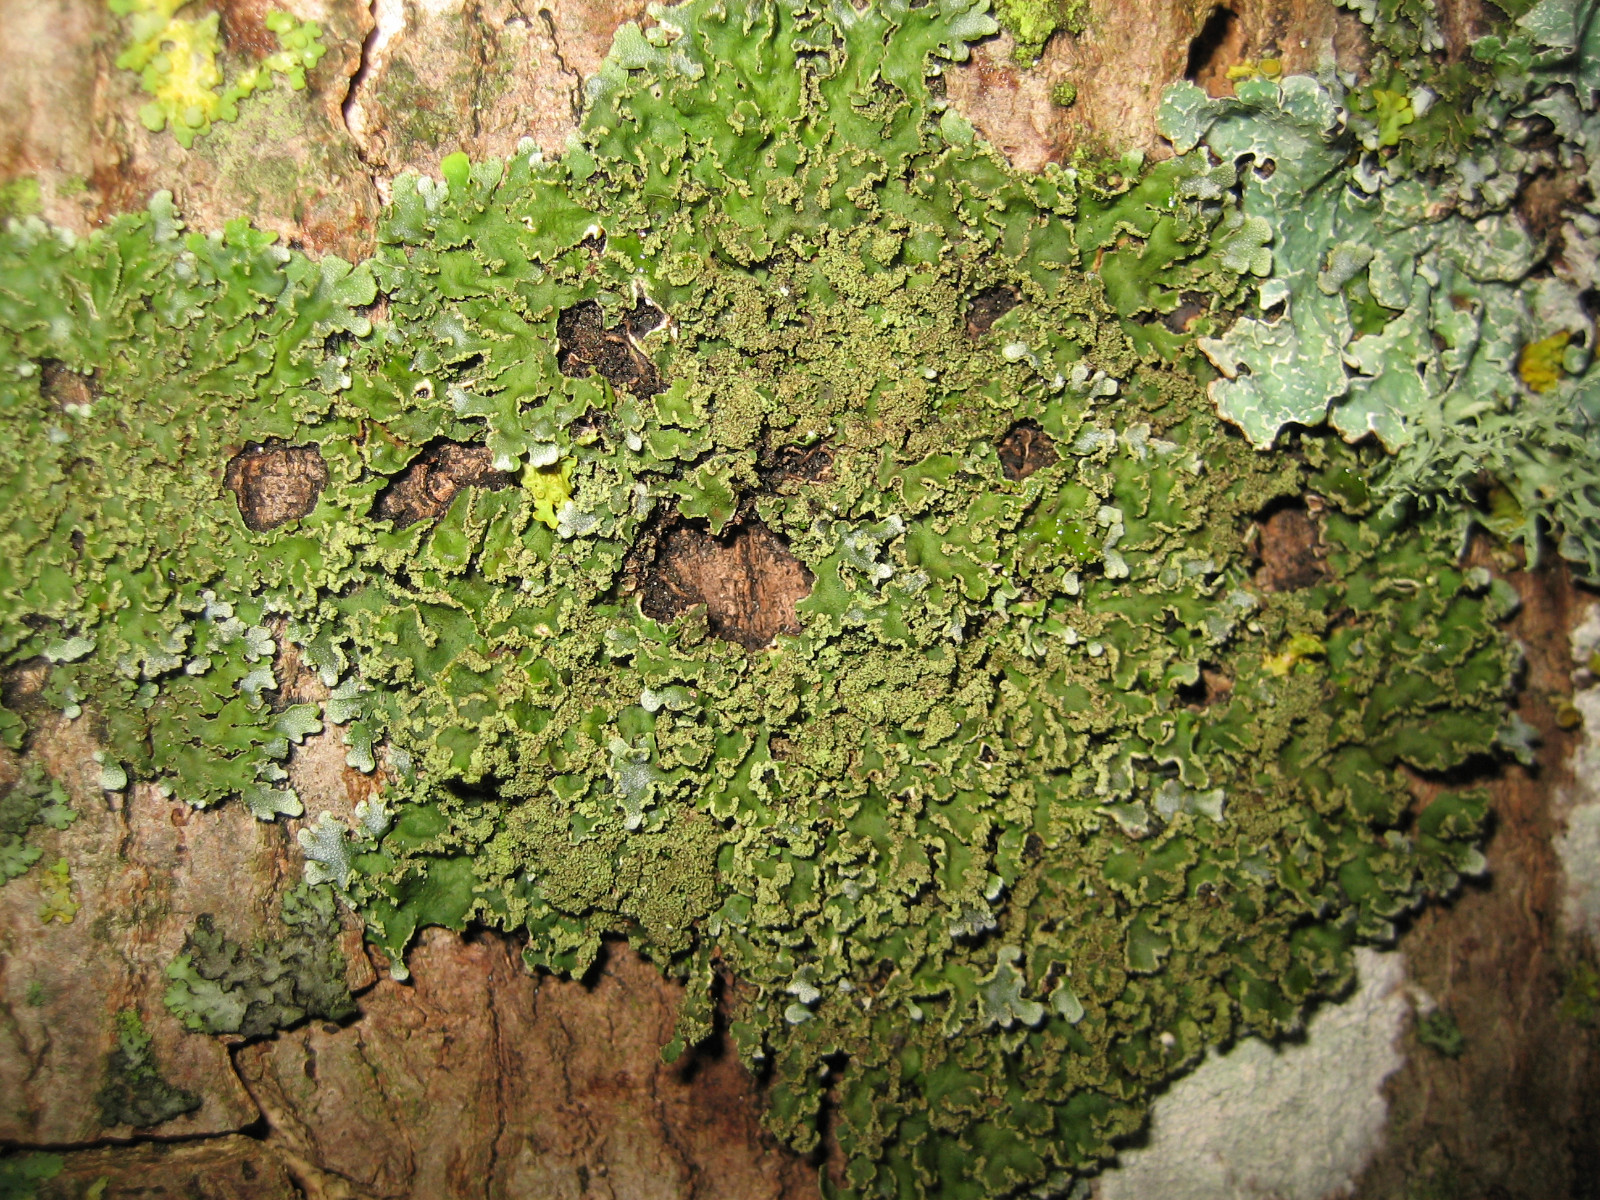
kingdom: Fungi
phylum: Ascomycota
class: Lecanoromycetes
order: Caliciales
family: Physciaceae
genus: Physconia
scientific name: Physconia enteroxantha
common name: grynet dugrosetlav
